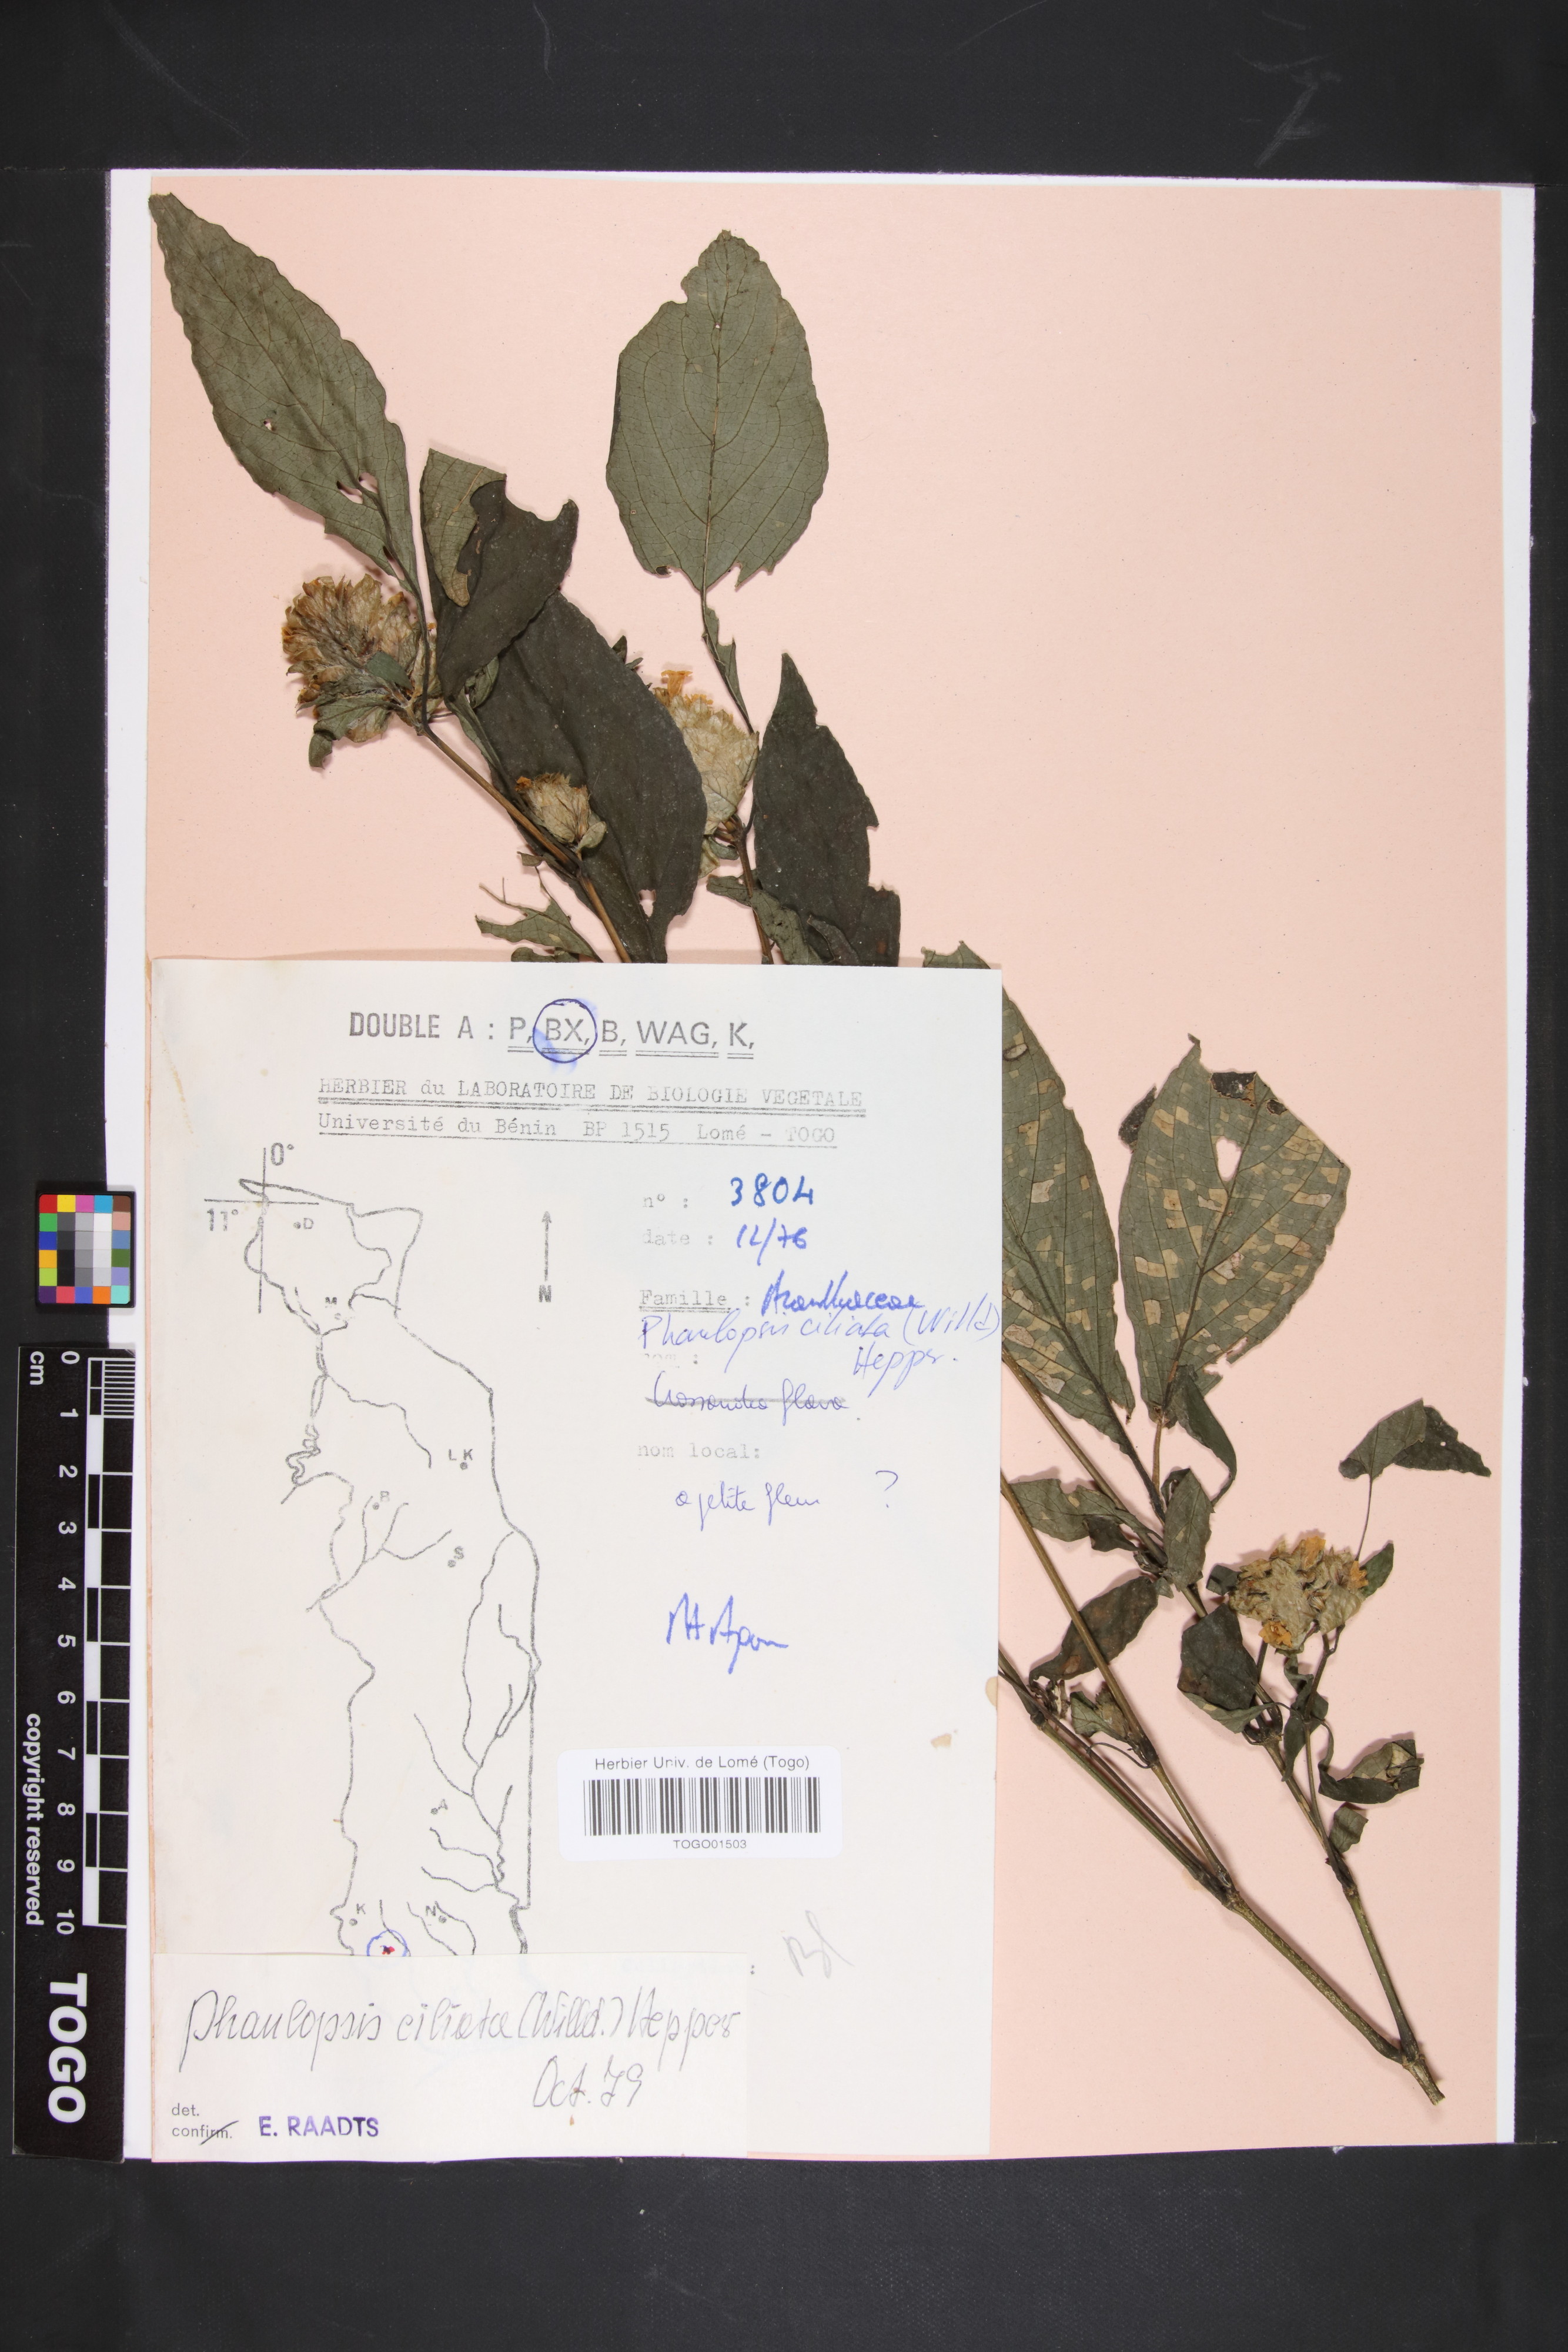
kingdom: Plantae
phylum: Tracheophyta
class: Magnoliopsida
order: Lamiales
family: Acanthaceae
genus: Phaulopsis
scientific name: Phaulopsis ciliata
